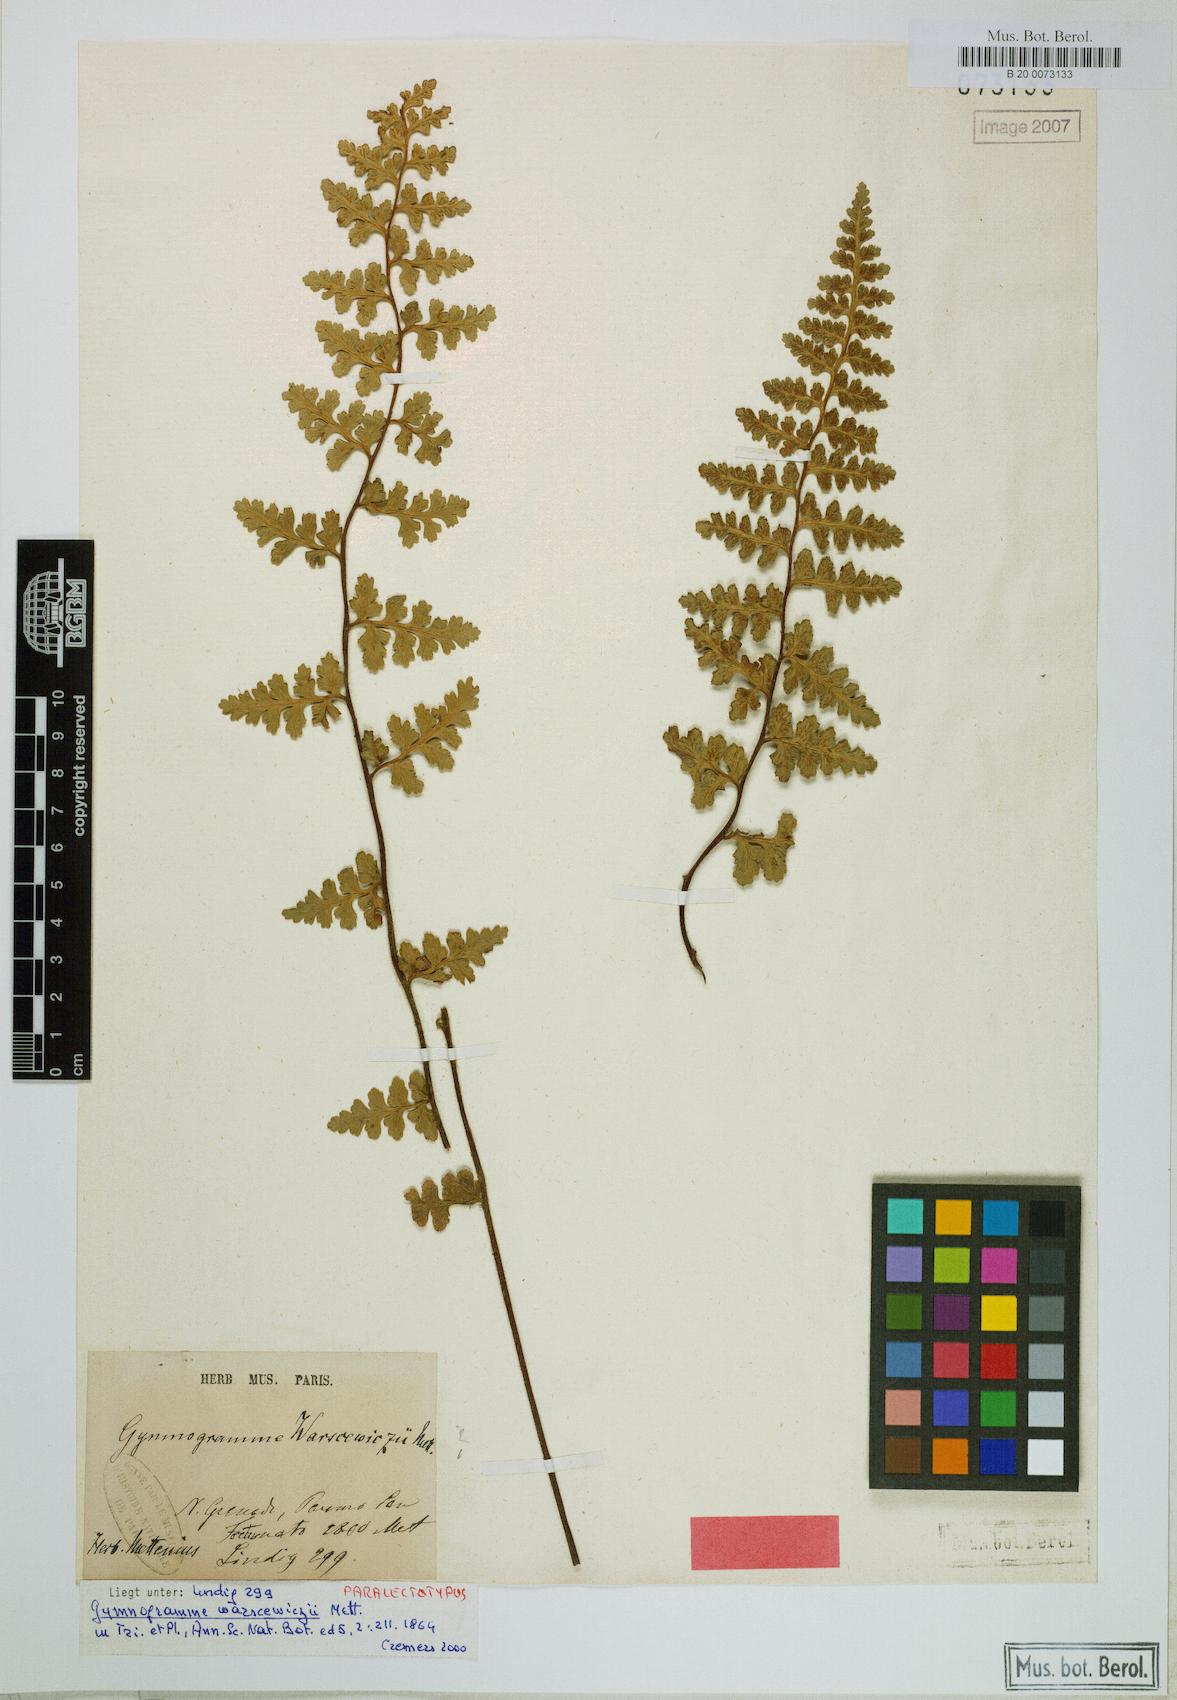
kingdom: Plantae
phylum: Tracheophyta
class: Polypodiopsida
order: Polypodiales
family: Pteridaceae
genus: Jamesonia
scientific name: Jamesonia warscewiczii
